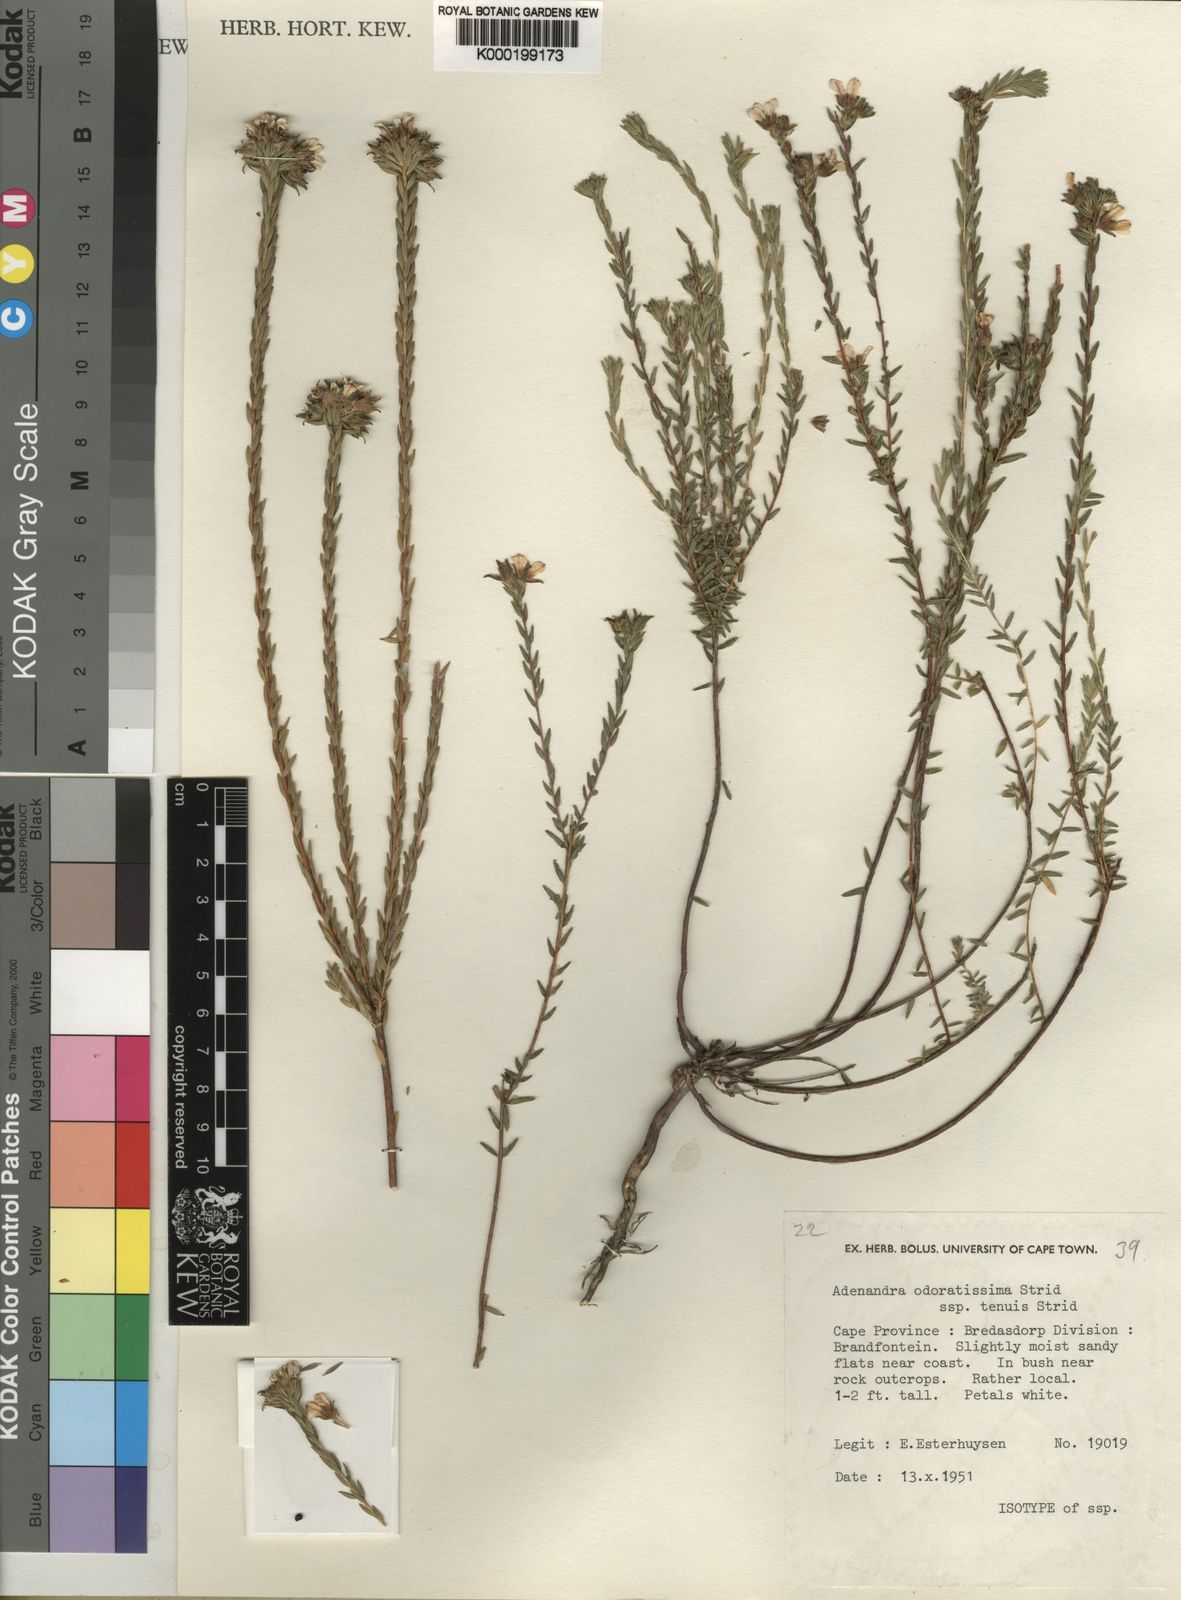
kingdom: Plantae
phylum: Tracheophyta
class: Magnoliopsida
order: Sapindales
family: Rutaceae
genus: Adenandra
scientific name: Adenandra odoratissima
